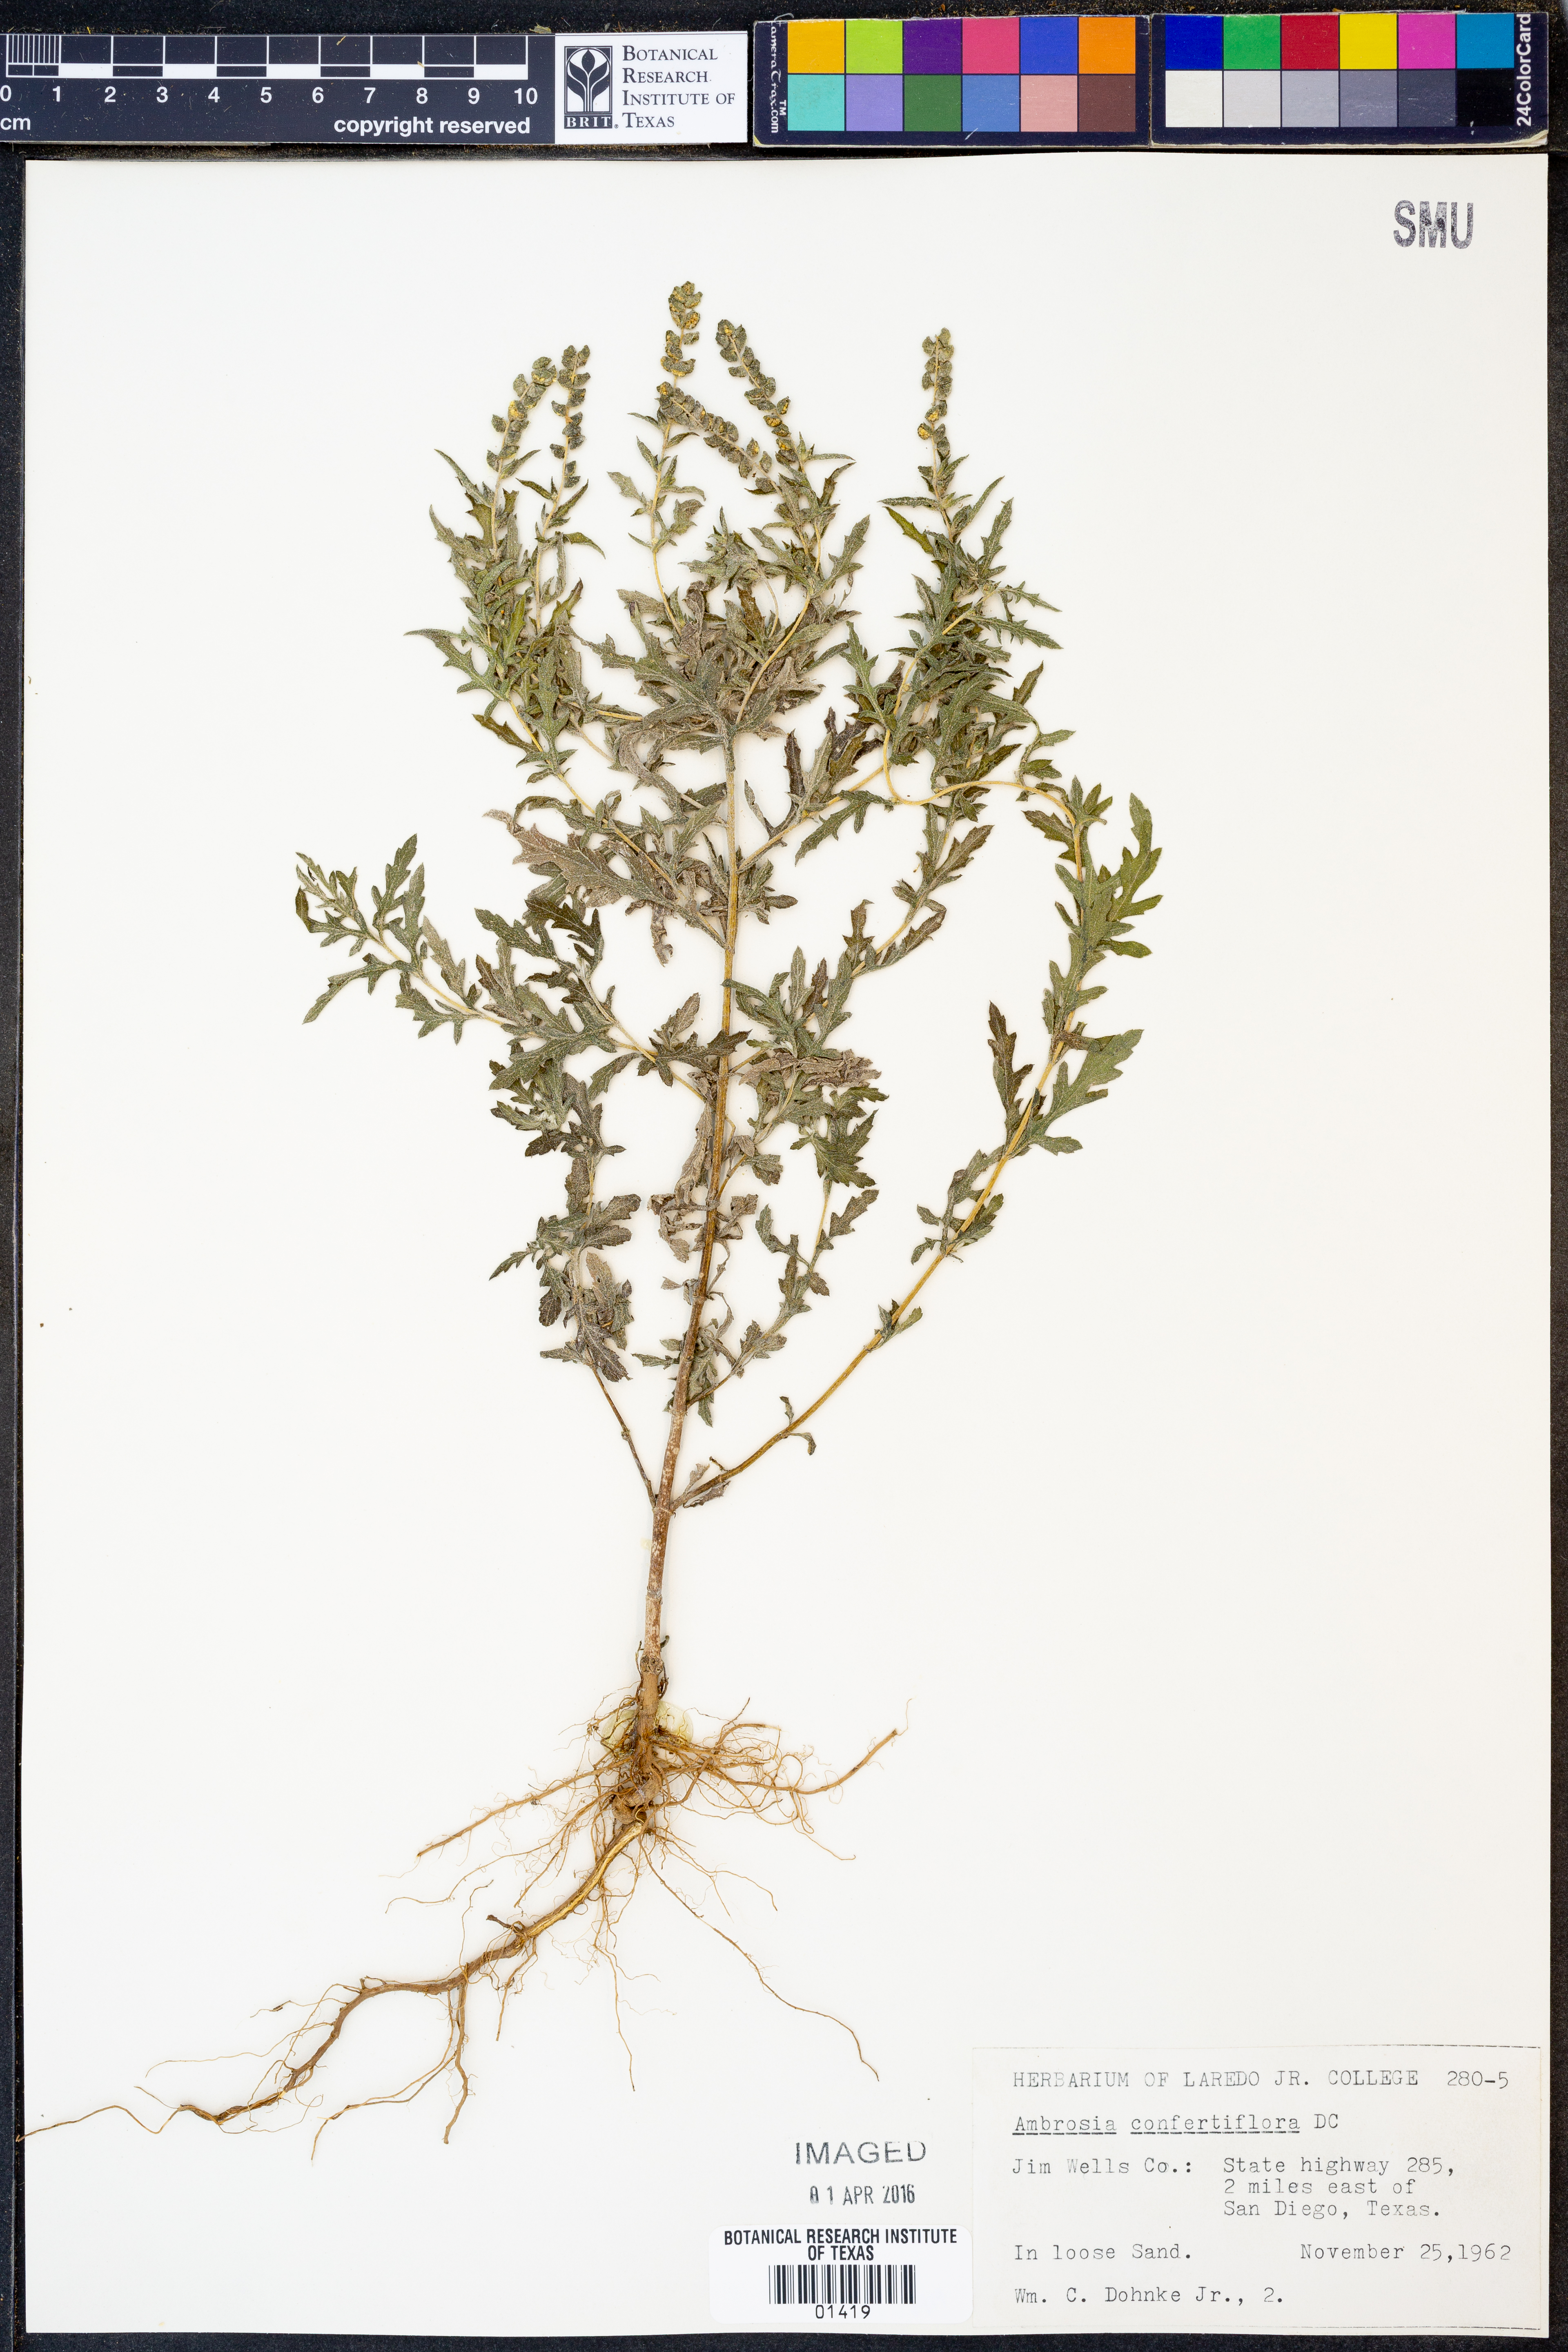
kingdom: Plantae
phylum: Tracheophyta
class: Magnoliopsida
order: Asterales
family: Asteraceae
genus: Ambrosia
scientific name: Ambrosia confertiflora
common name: Bur ragweed
